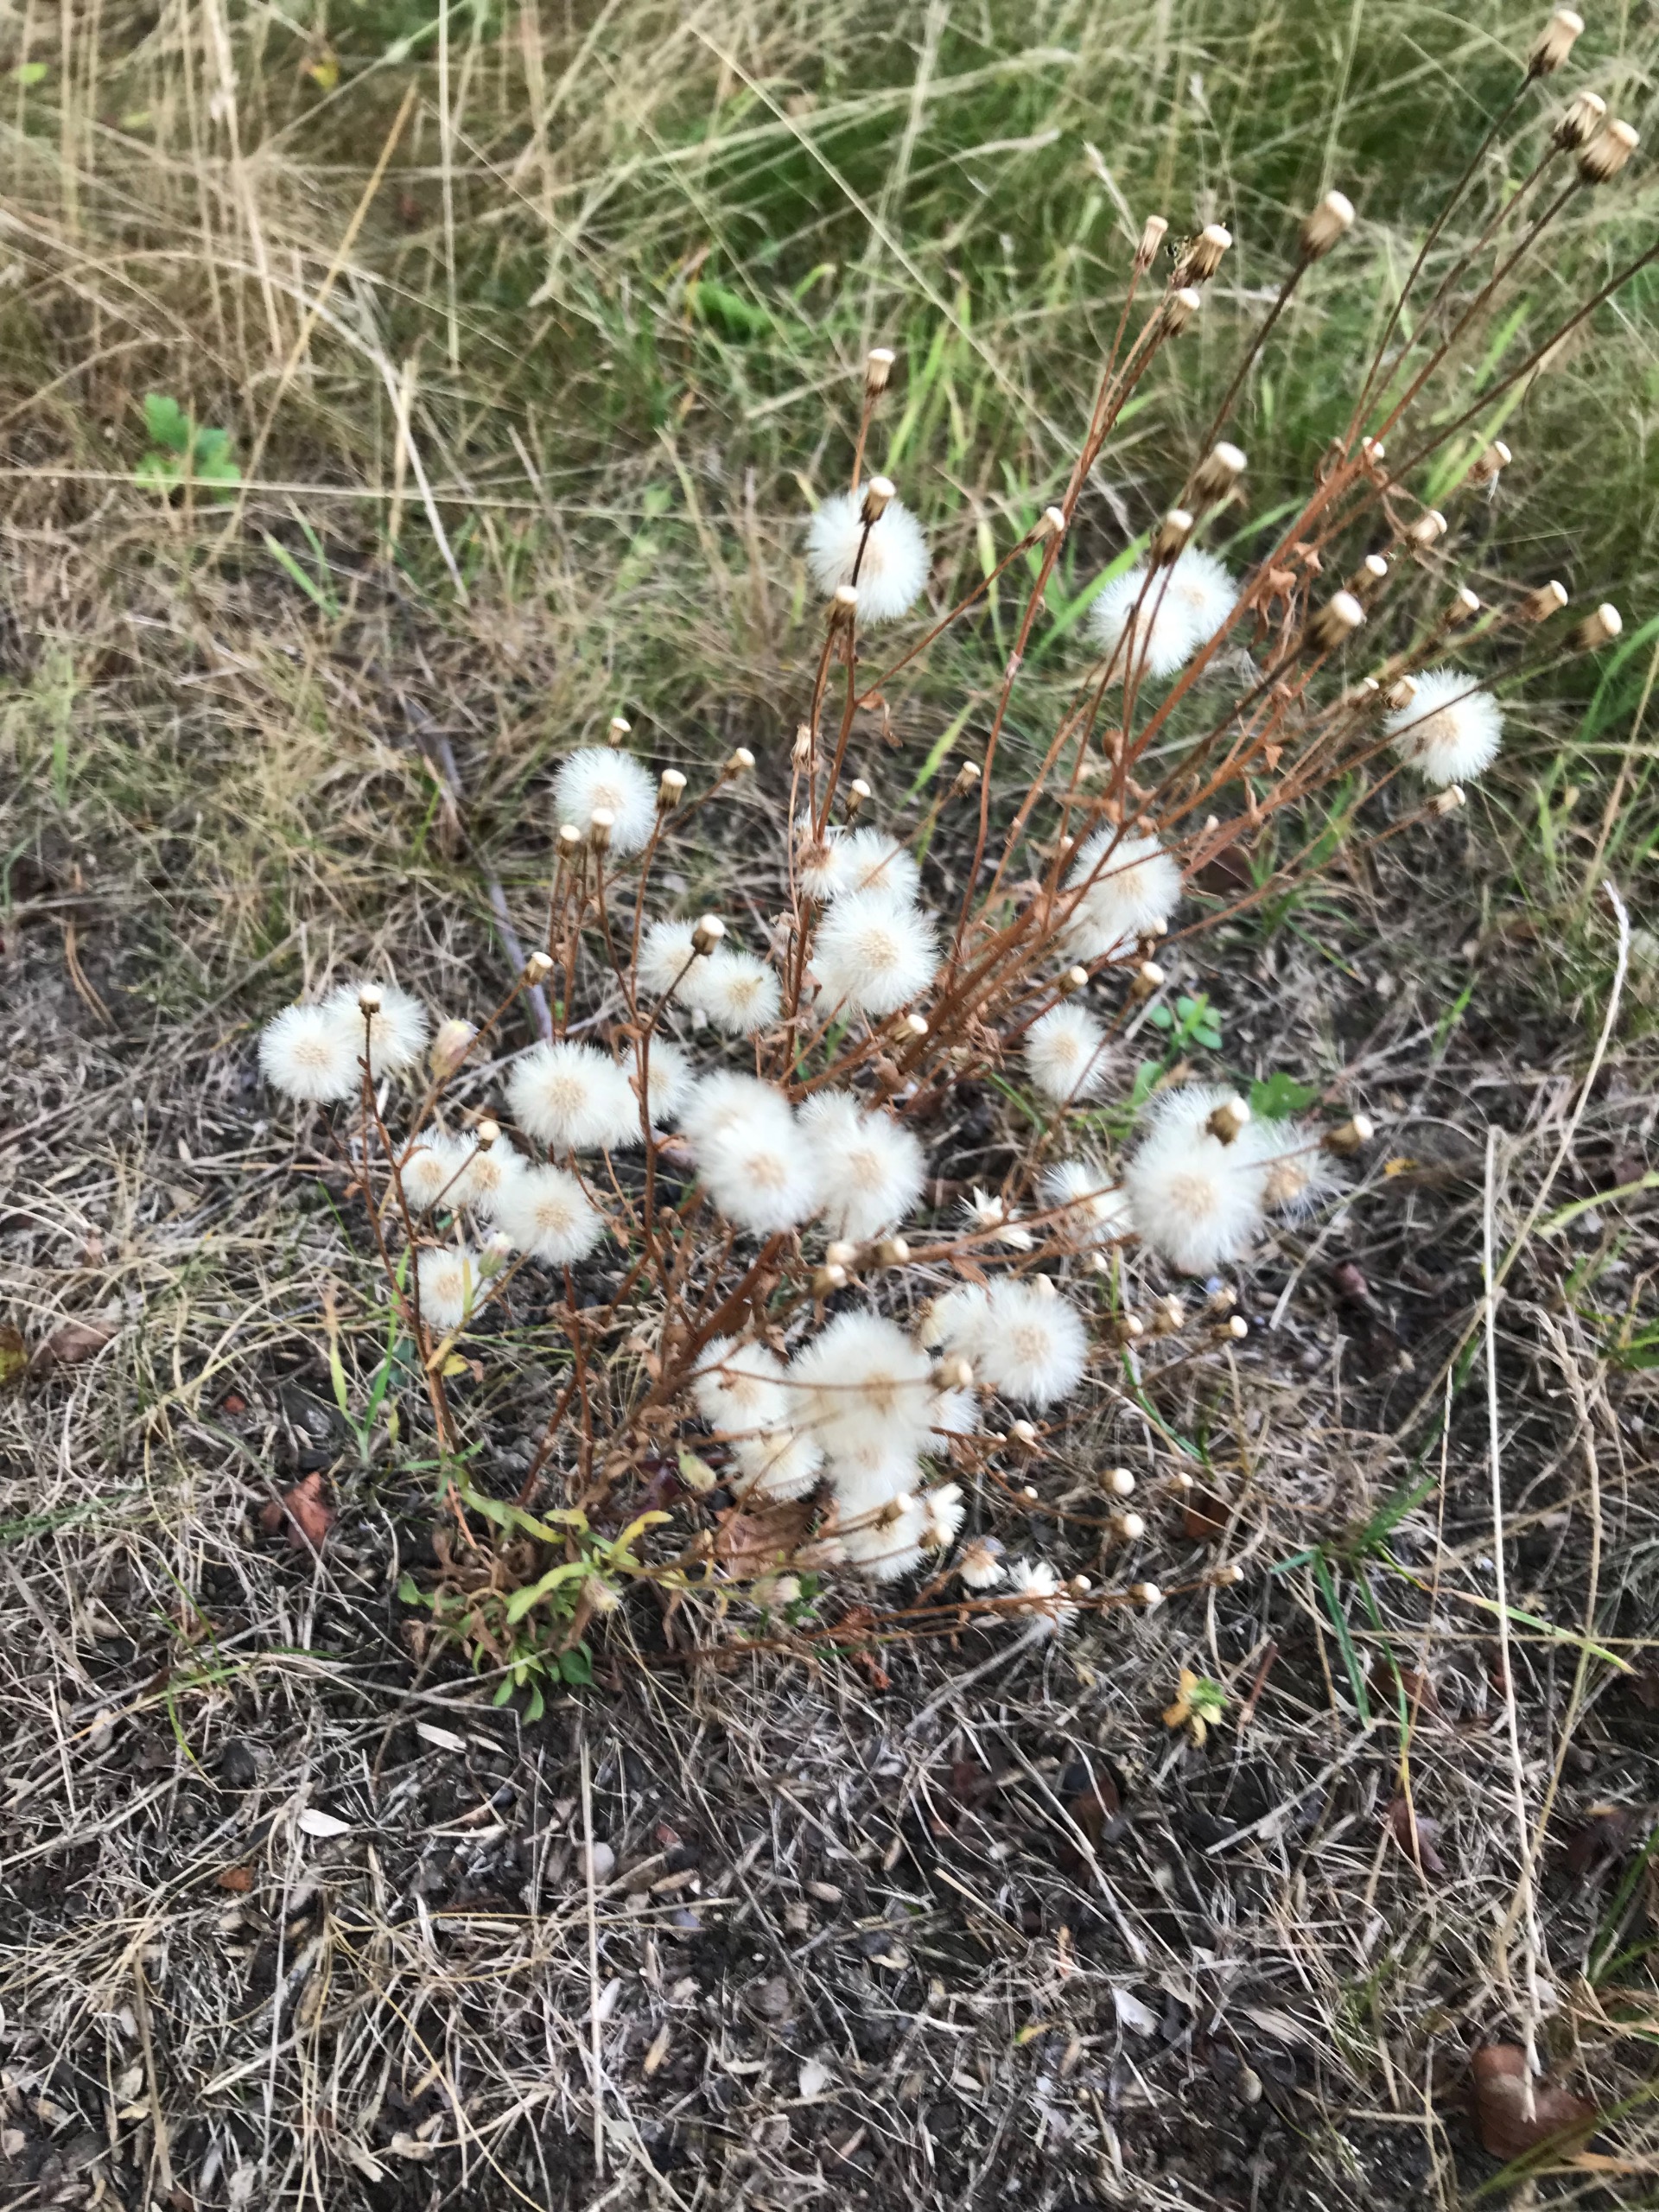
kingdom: Plantae
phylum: Tracheophyta
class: Magnoliopsida
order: Asterales
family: Asteraceae
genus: Erigeron
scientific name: Erigeron acris
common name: Bitter bakkestjerne
